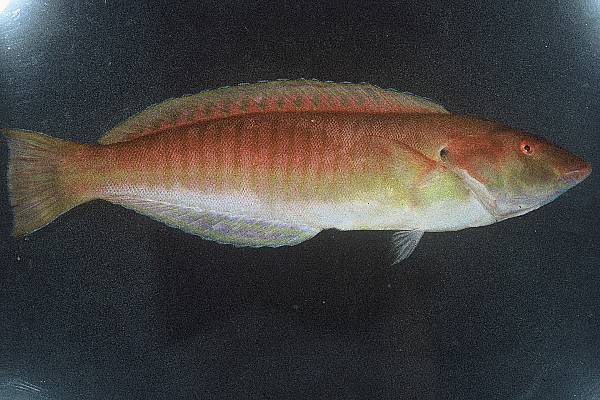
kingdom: Animalia
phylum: Chordata
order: Perciformes
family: Labridae
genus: Hologymnosus
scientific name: Hologymnosus doliatus
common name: Pastel ringwrasse
